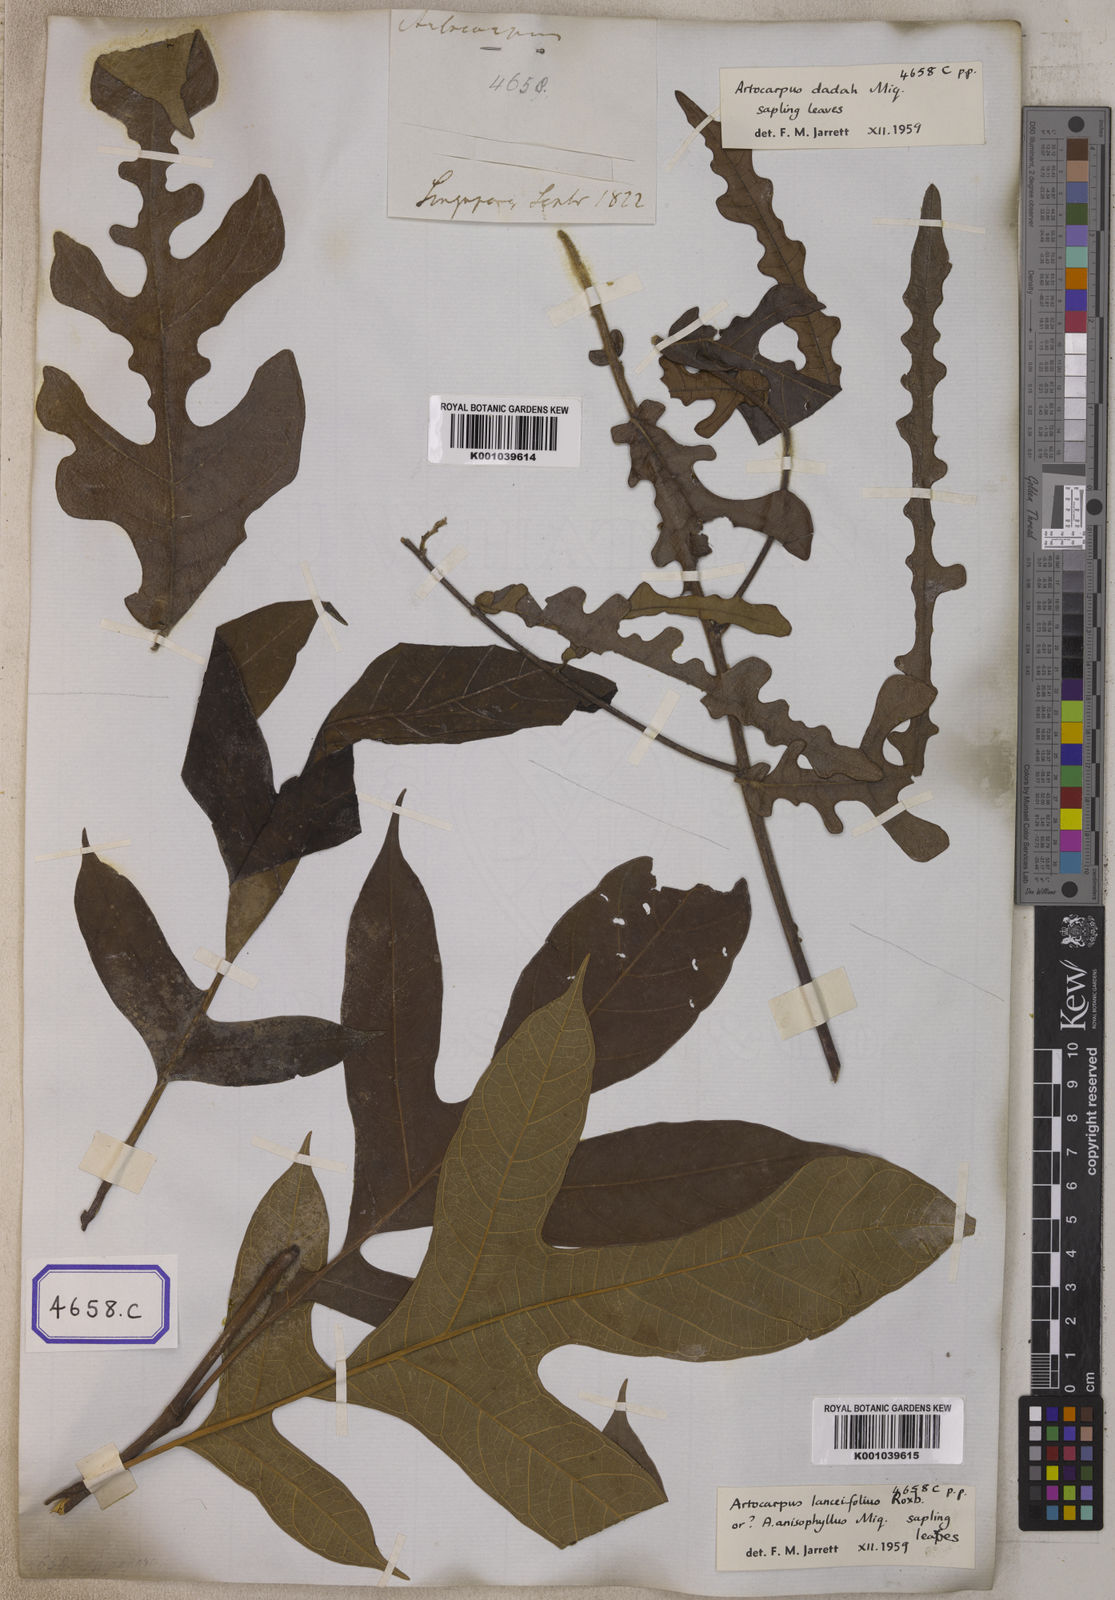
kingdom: Plantae
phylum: Tracheophyta
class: Magnoliopsida
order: Rosales
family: Moraceae
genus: Artocarpus
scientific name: Artocarpus rigidus
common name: Monkey-jack
